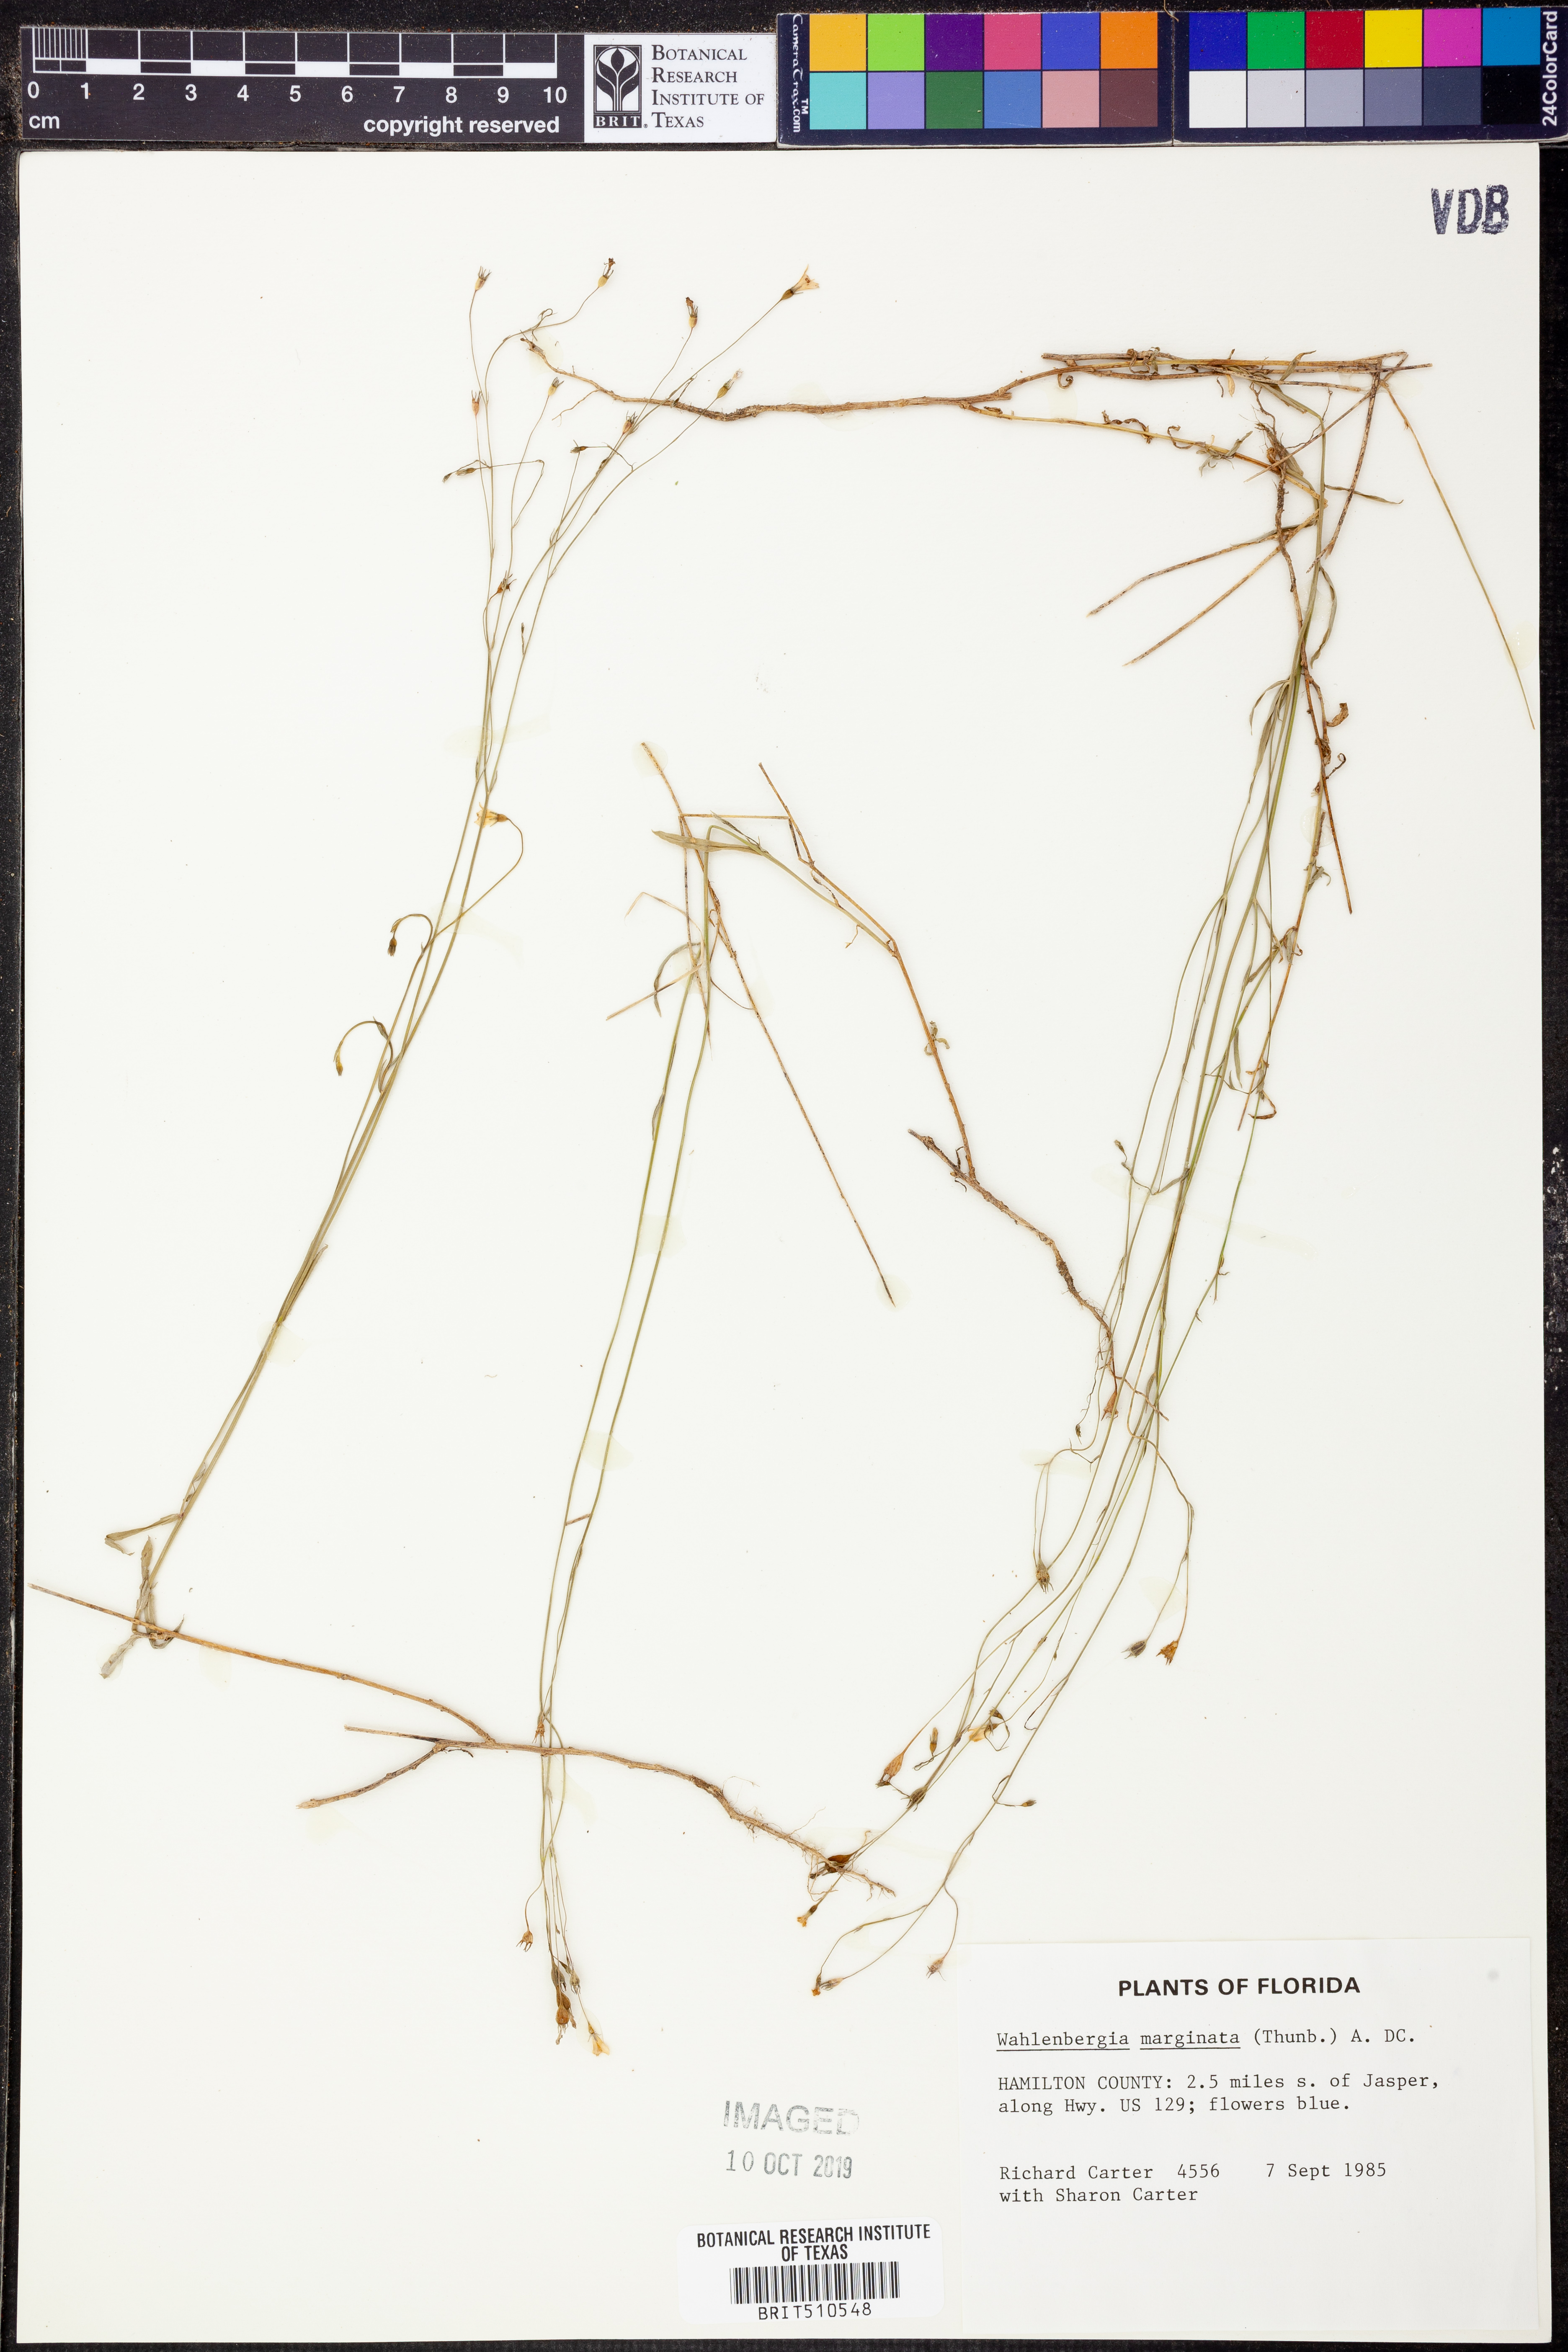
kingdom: Plantae
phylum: Tracheophyta
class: Magnoliopsida
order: Asterales
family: Campanulaceae
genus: Wahlenbergia
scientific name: Wahlenbergia marginata
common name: Southern rockbell
